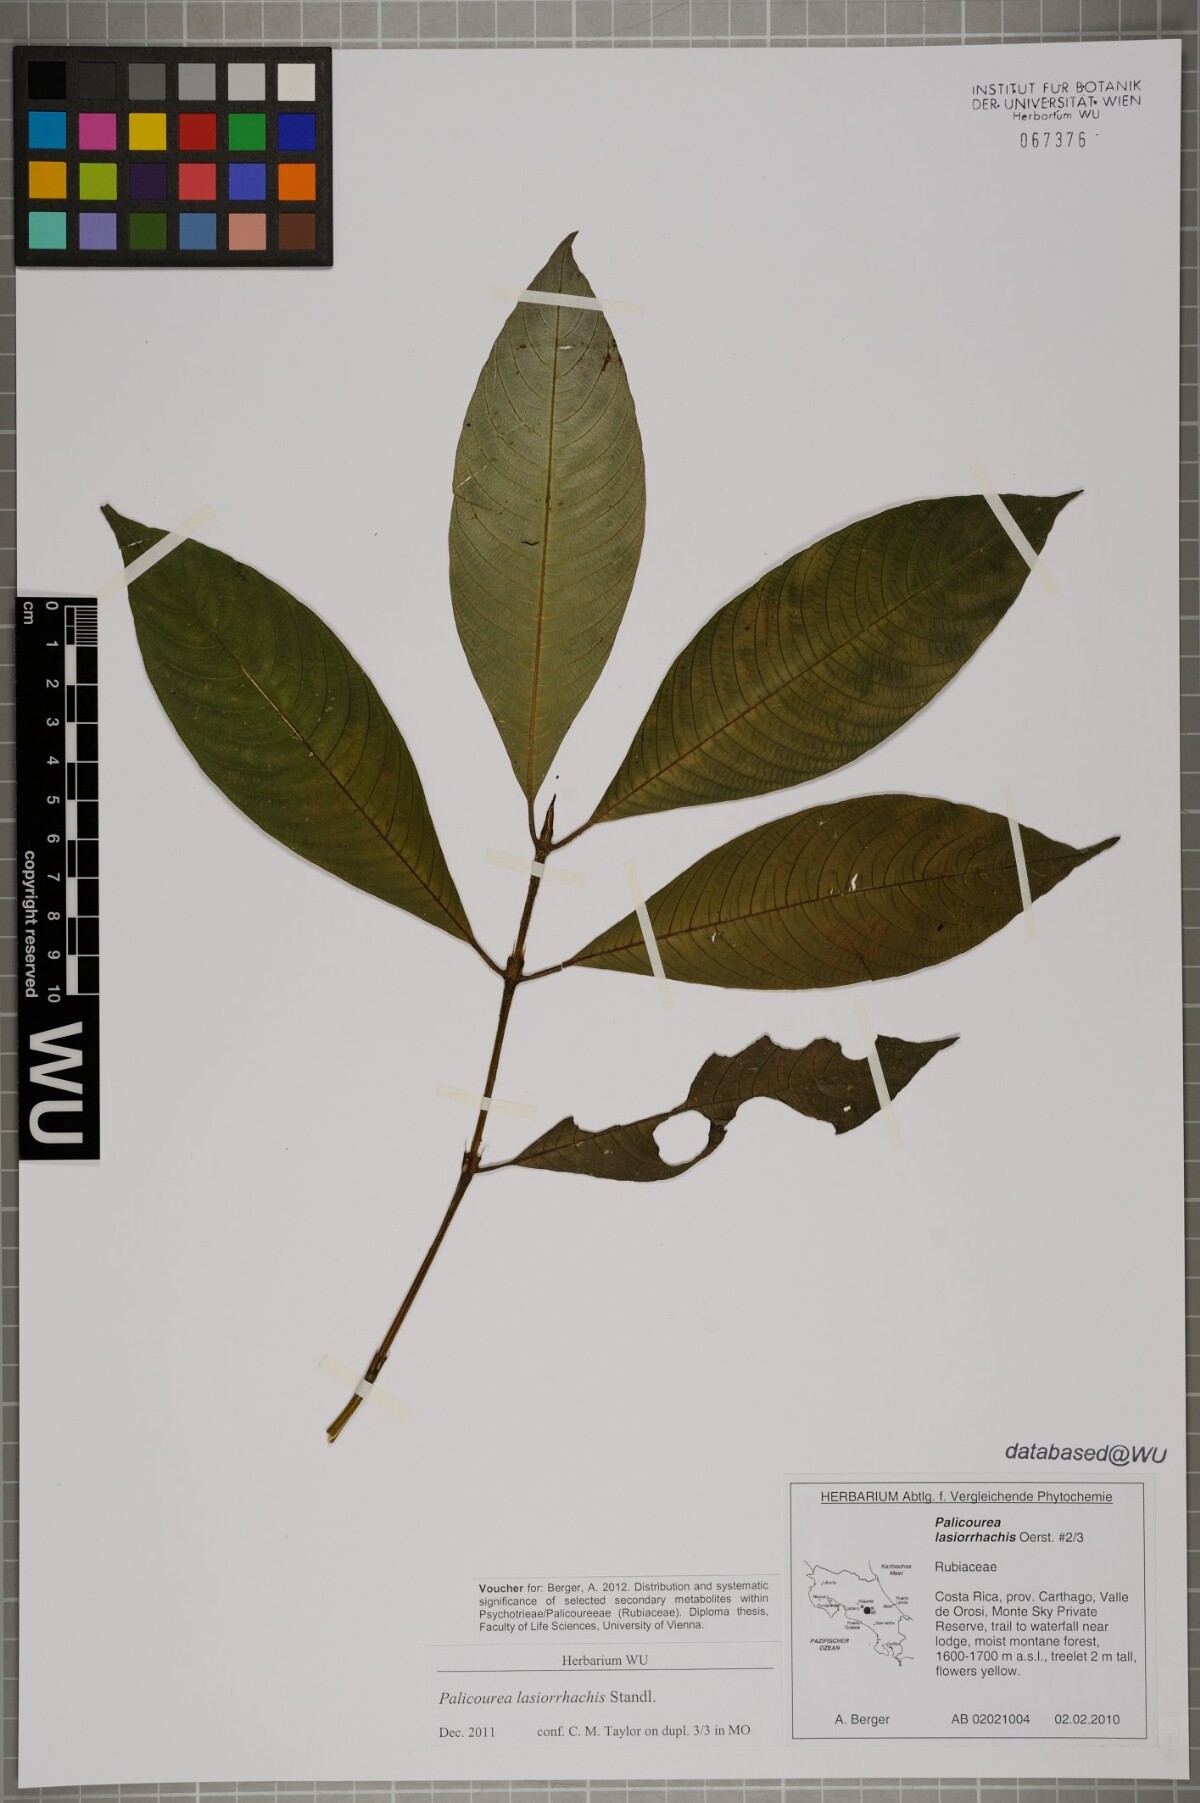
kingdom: Plantae
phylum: Tracheophyta
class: Magnoliopsida
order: Gentianales
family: Rubiaceae
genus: Palicourea
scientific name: Palicourea lasiorrhachis
